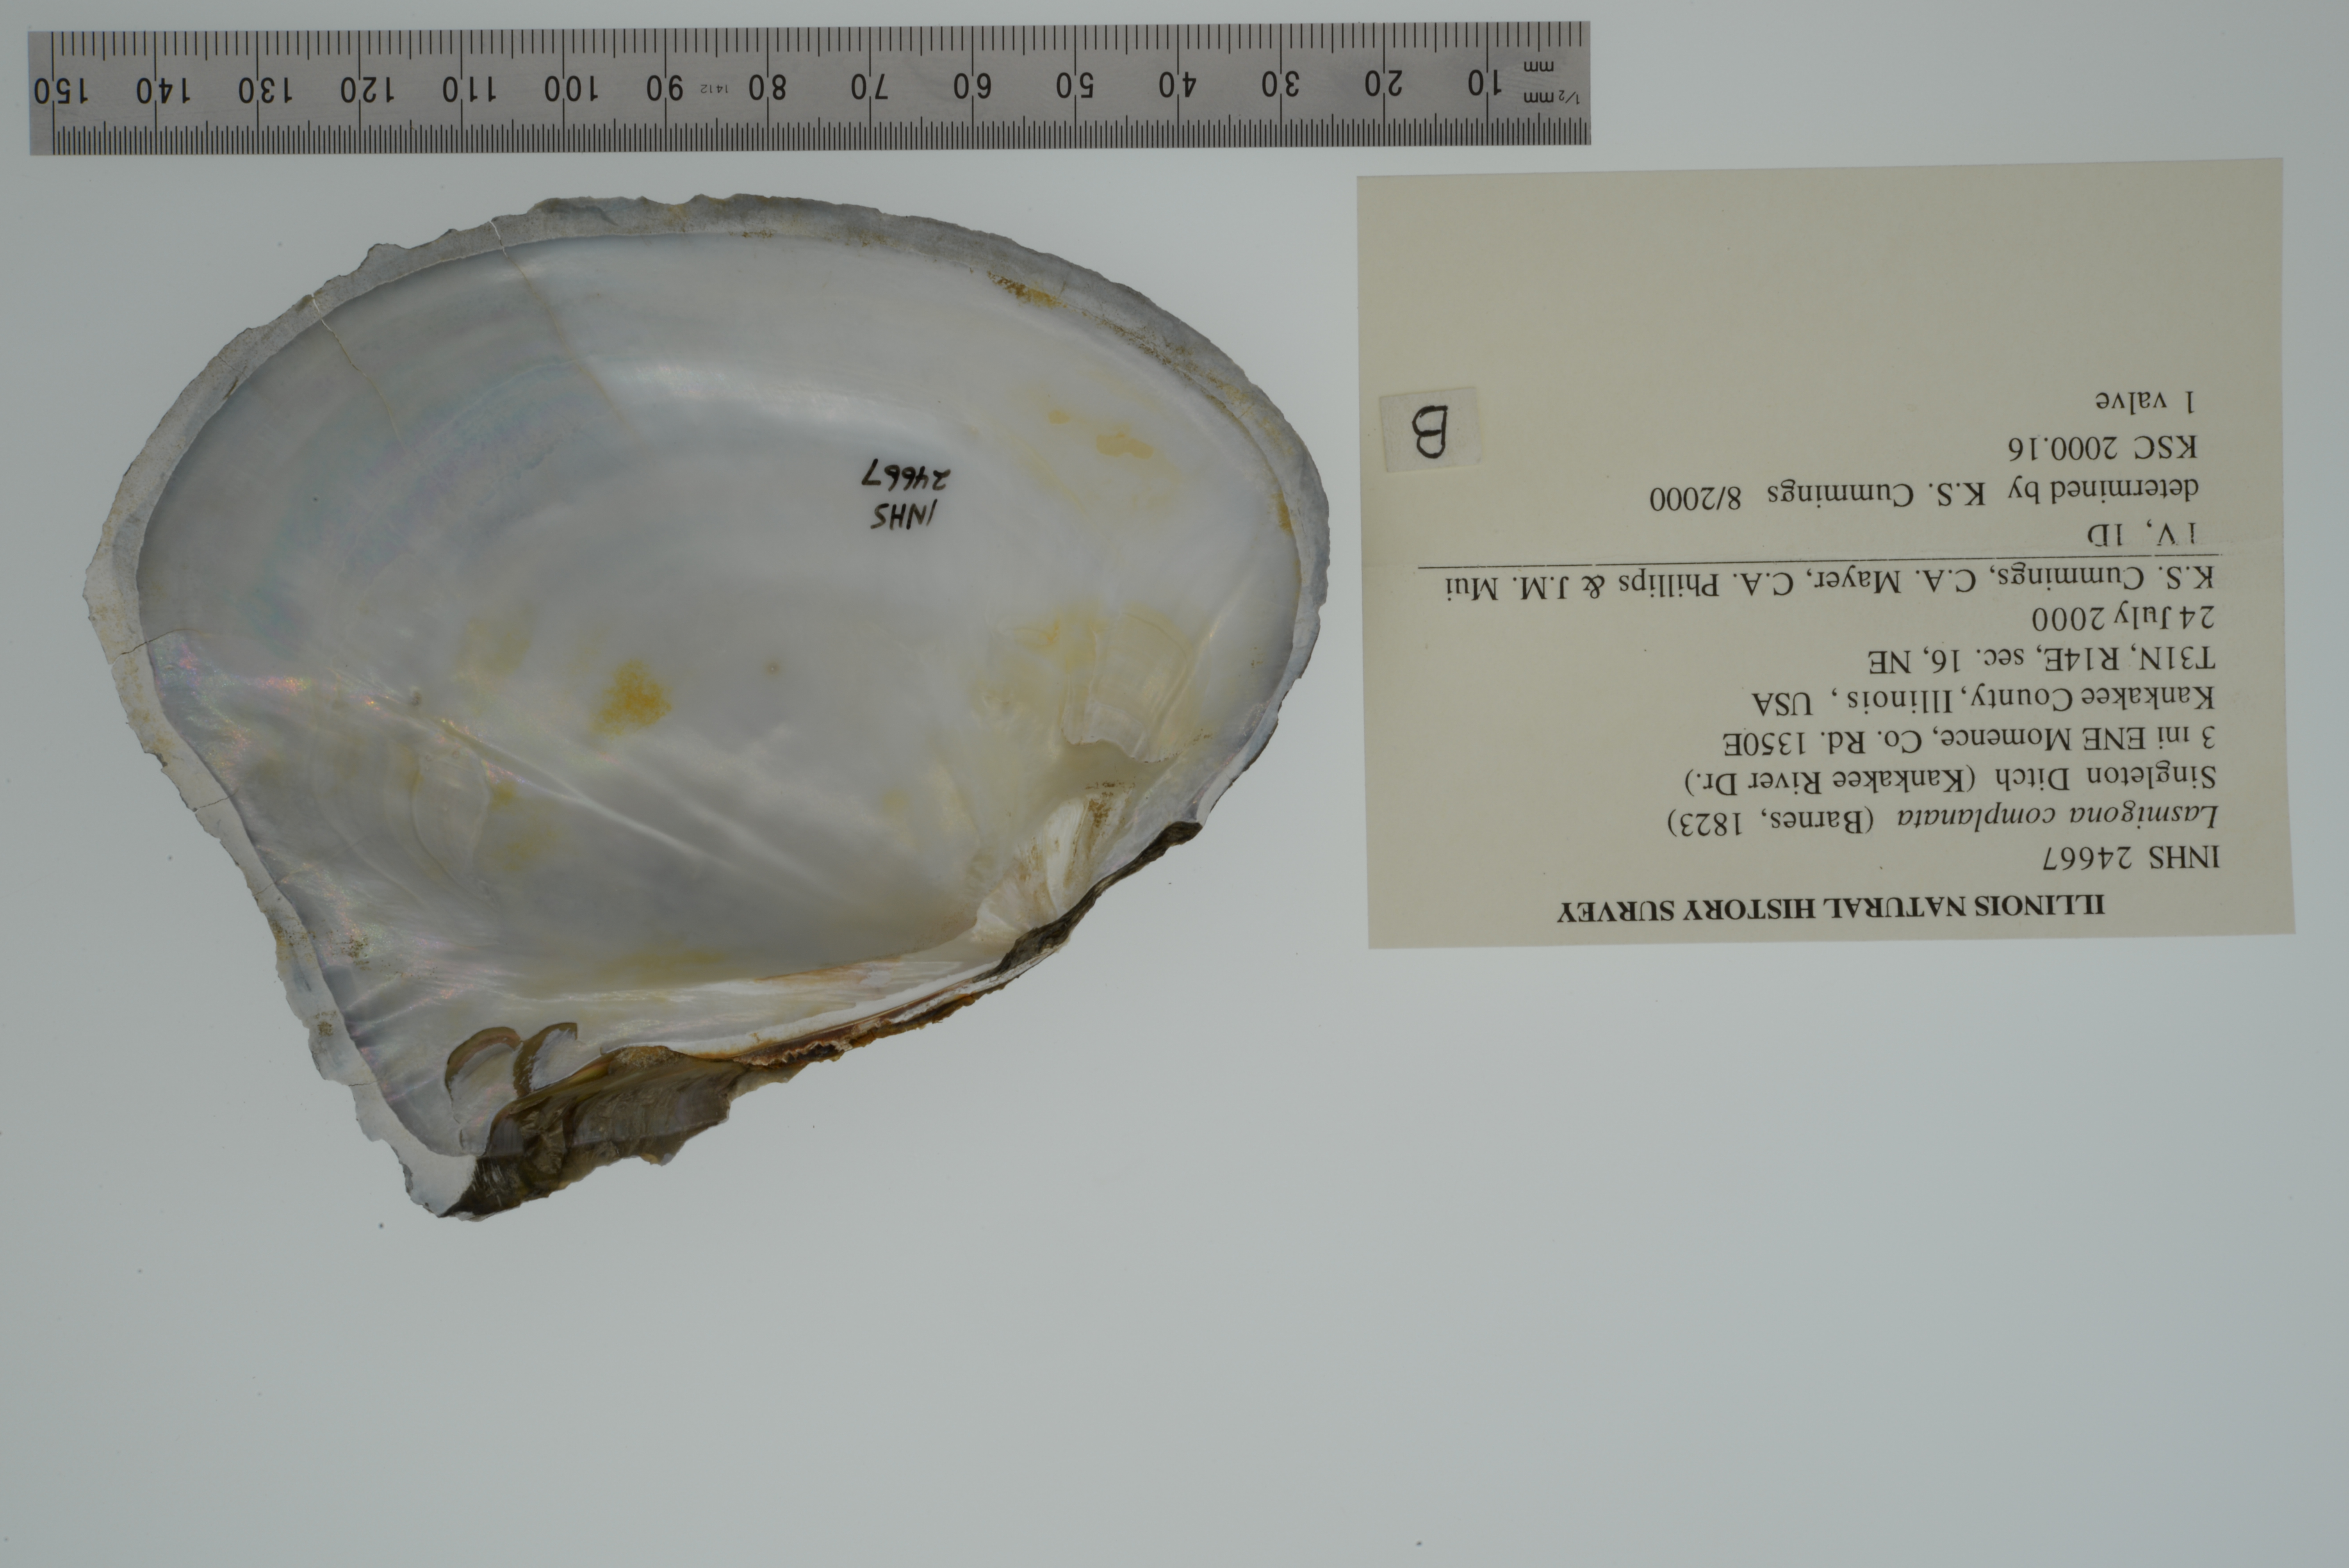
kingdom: Animalia
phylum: Mollusca
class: Bivalvia
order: Unionida
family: Unionidae
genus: Lasmigona
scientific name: Lasmigona complanata
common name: White heelsplitter
